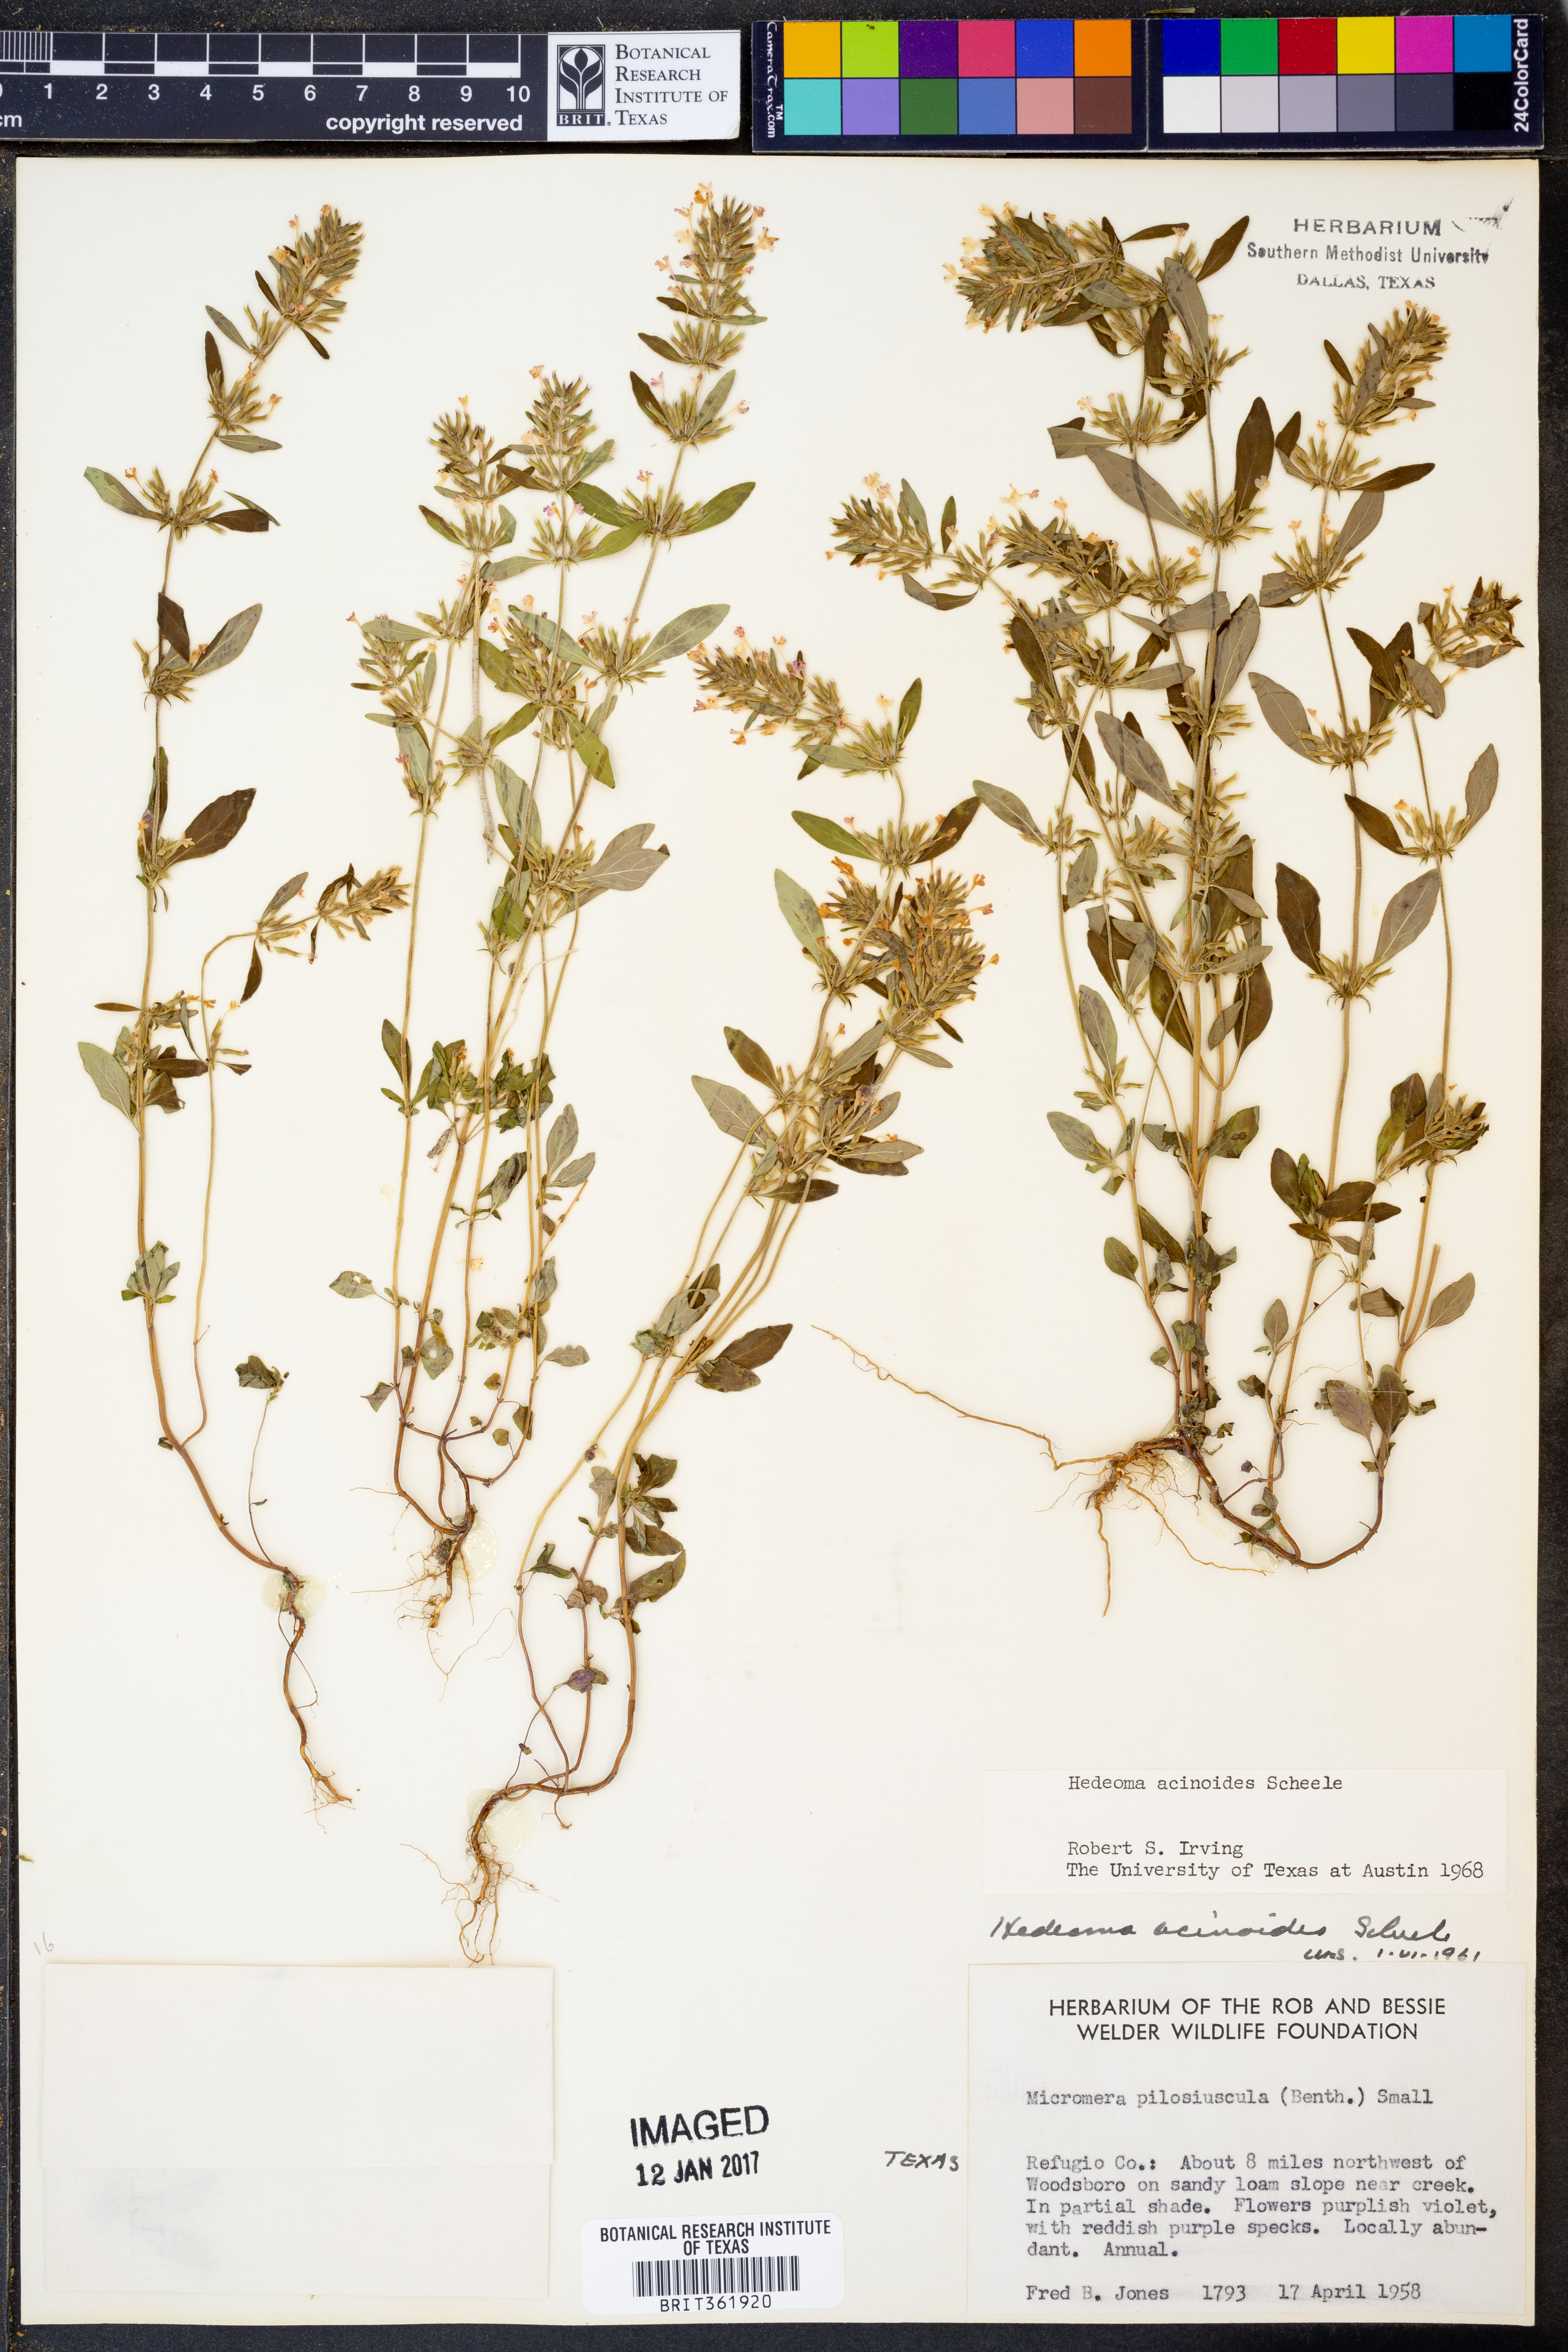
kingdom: Plantae
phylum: Tracheophyta
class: Magnoliopsida
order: Lamiales
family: Lamiaceae
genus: Hedeoma
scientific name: Hedeoma acinoides
